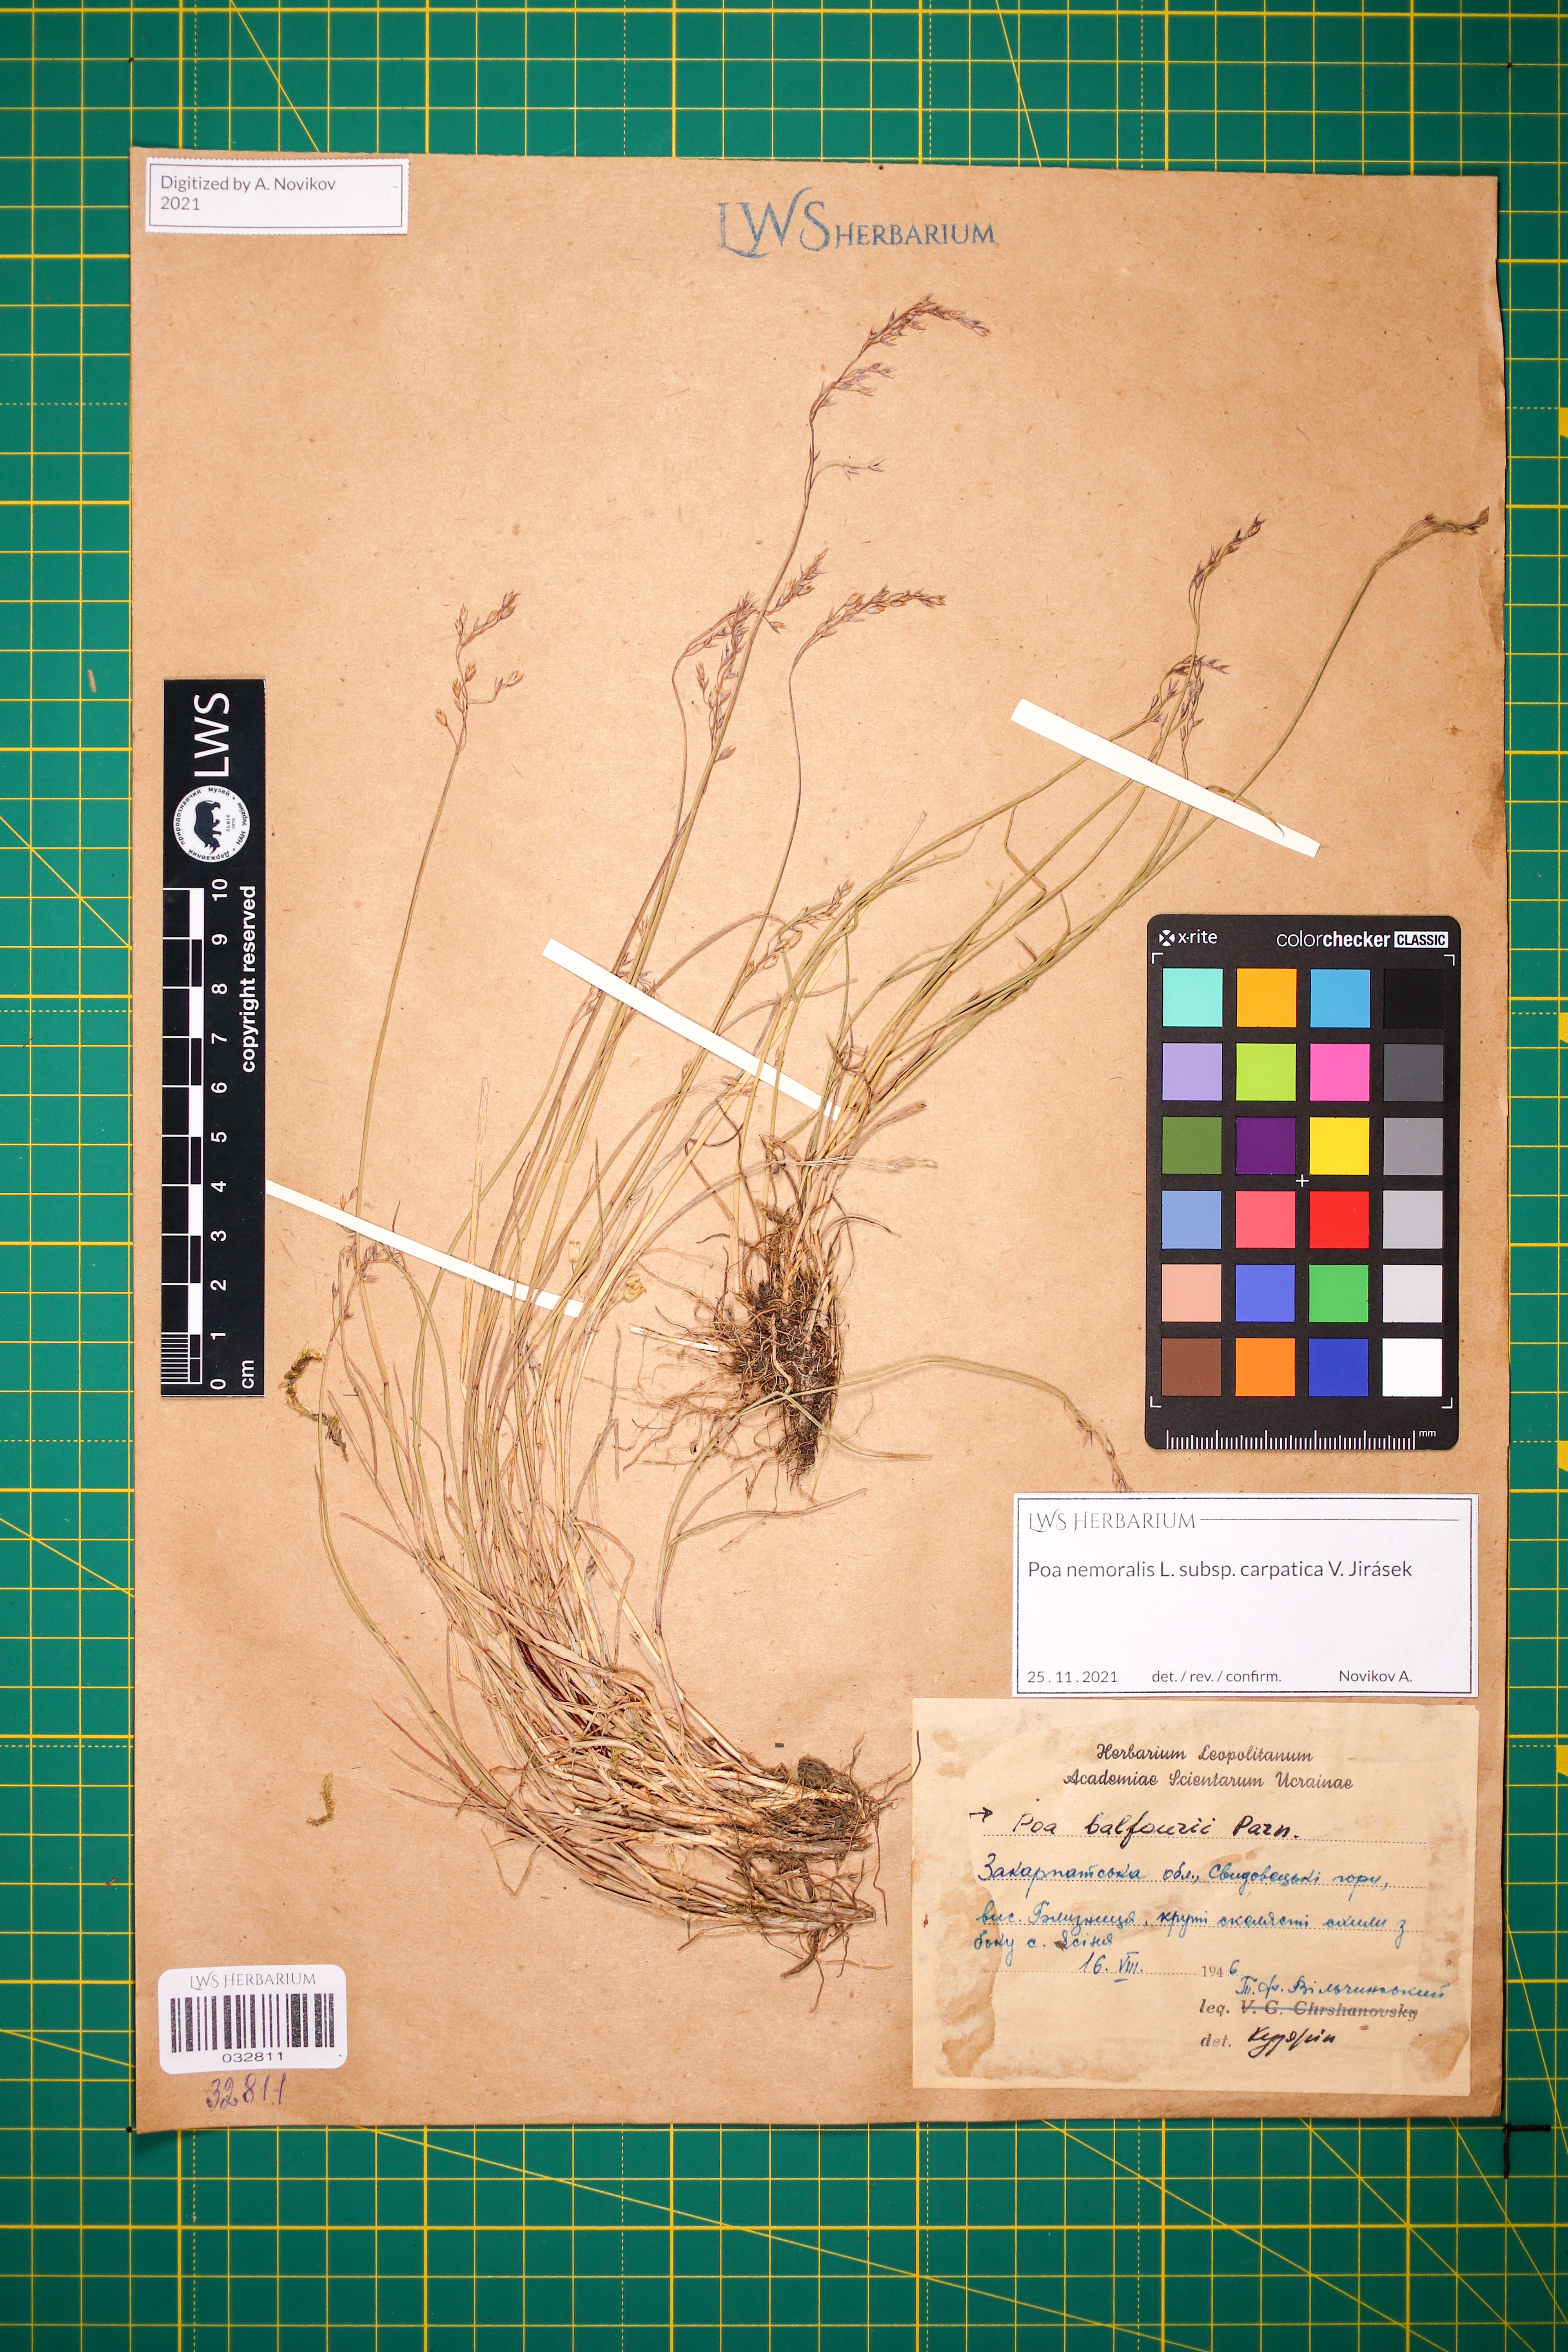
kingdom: Plantae
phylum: Tracheophyta
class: Liliopsida
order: Poales
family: Poaceae
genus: Poa
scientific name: Poa carpatica
